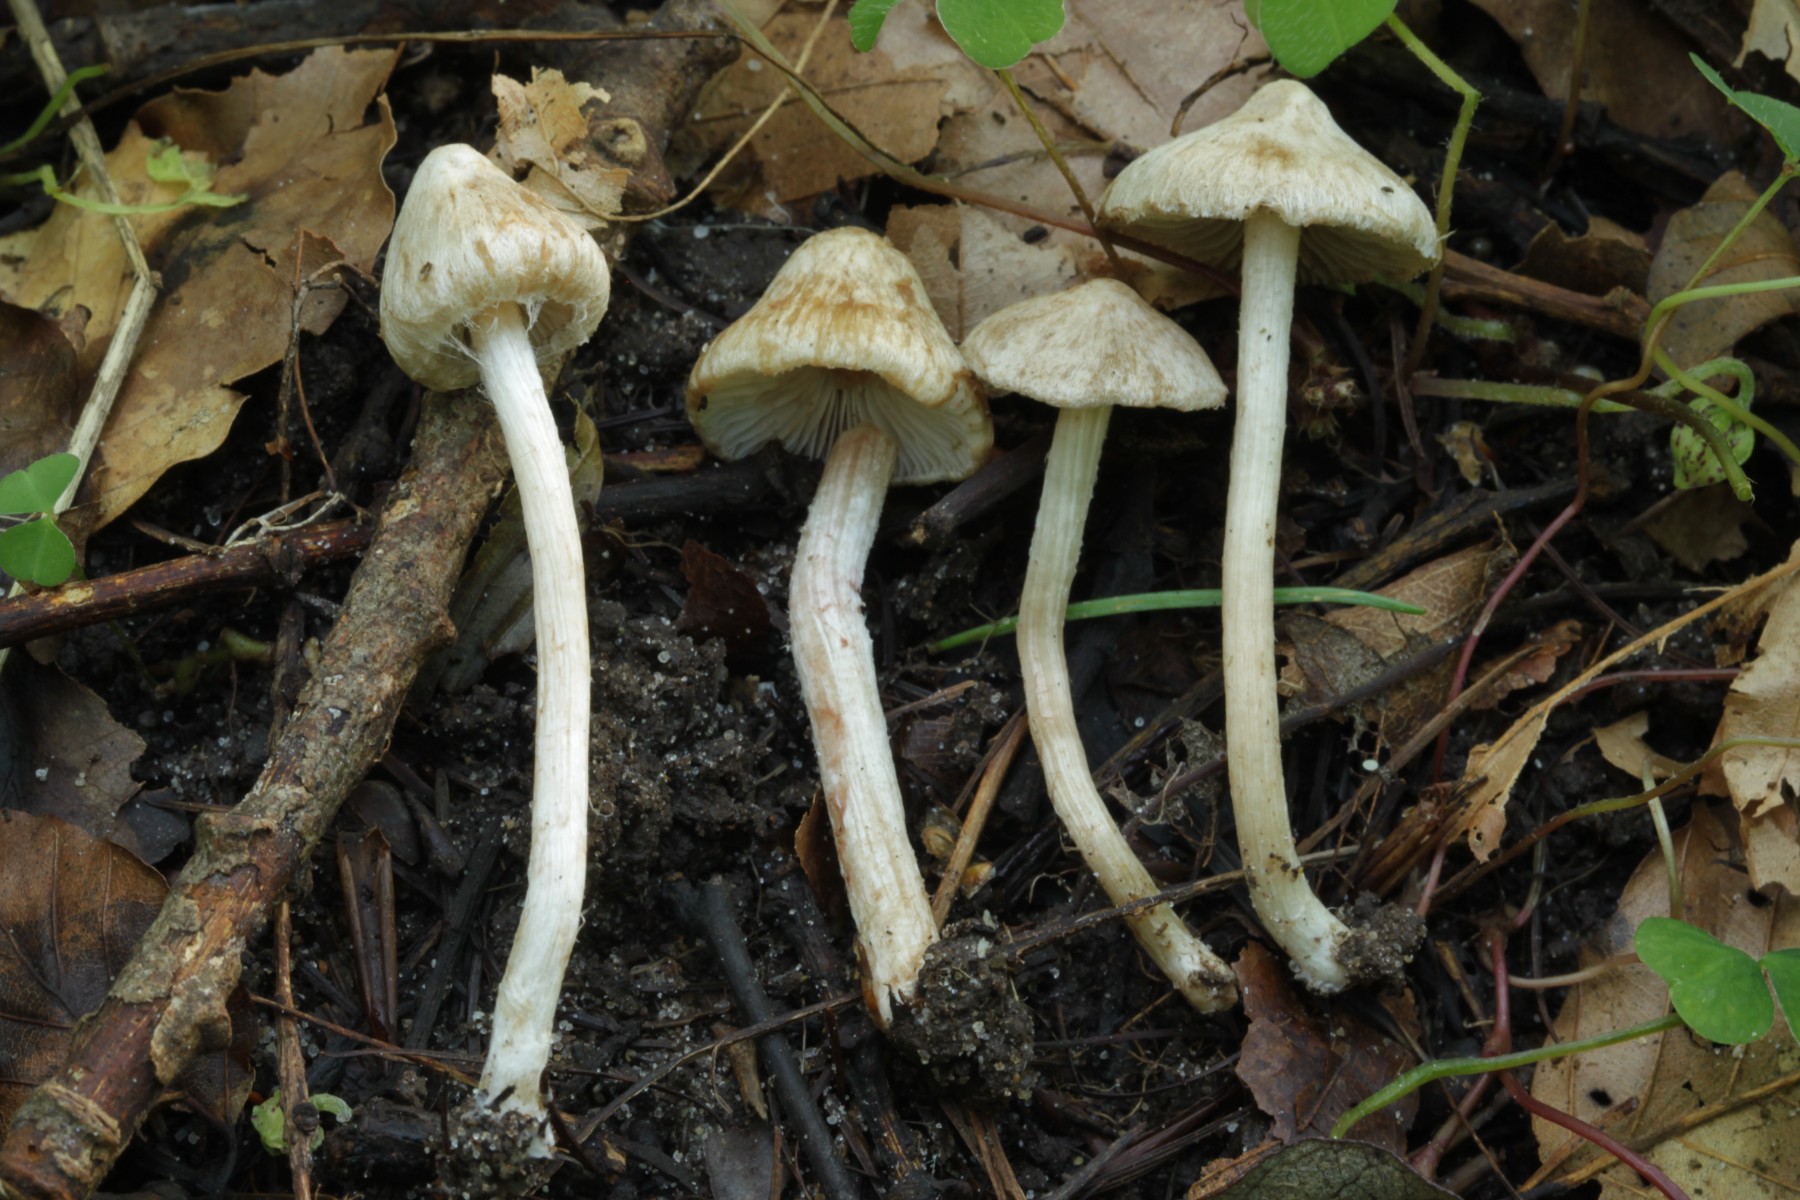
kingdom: Fungi
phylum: Basidiomycota
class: Agaricomycetes
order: Agaricales
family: Inocybaceae
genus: Inocybe
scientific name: Inocybe
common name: trævlhat
